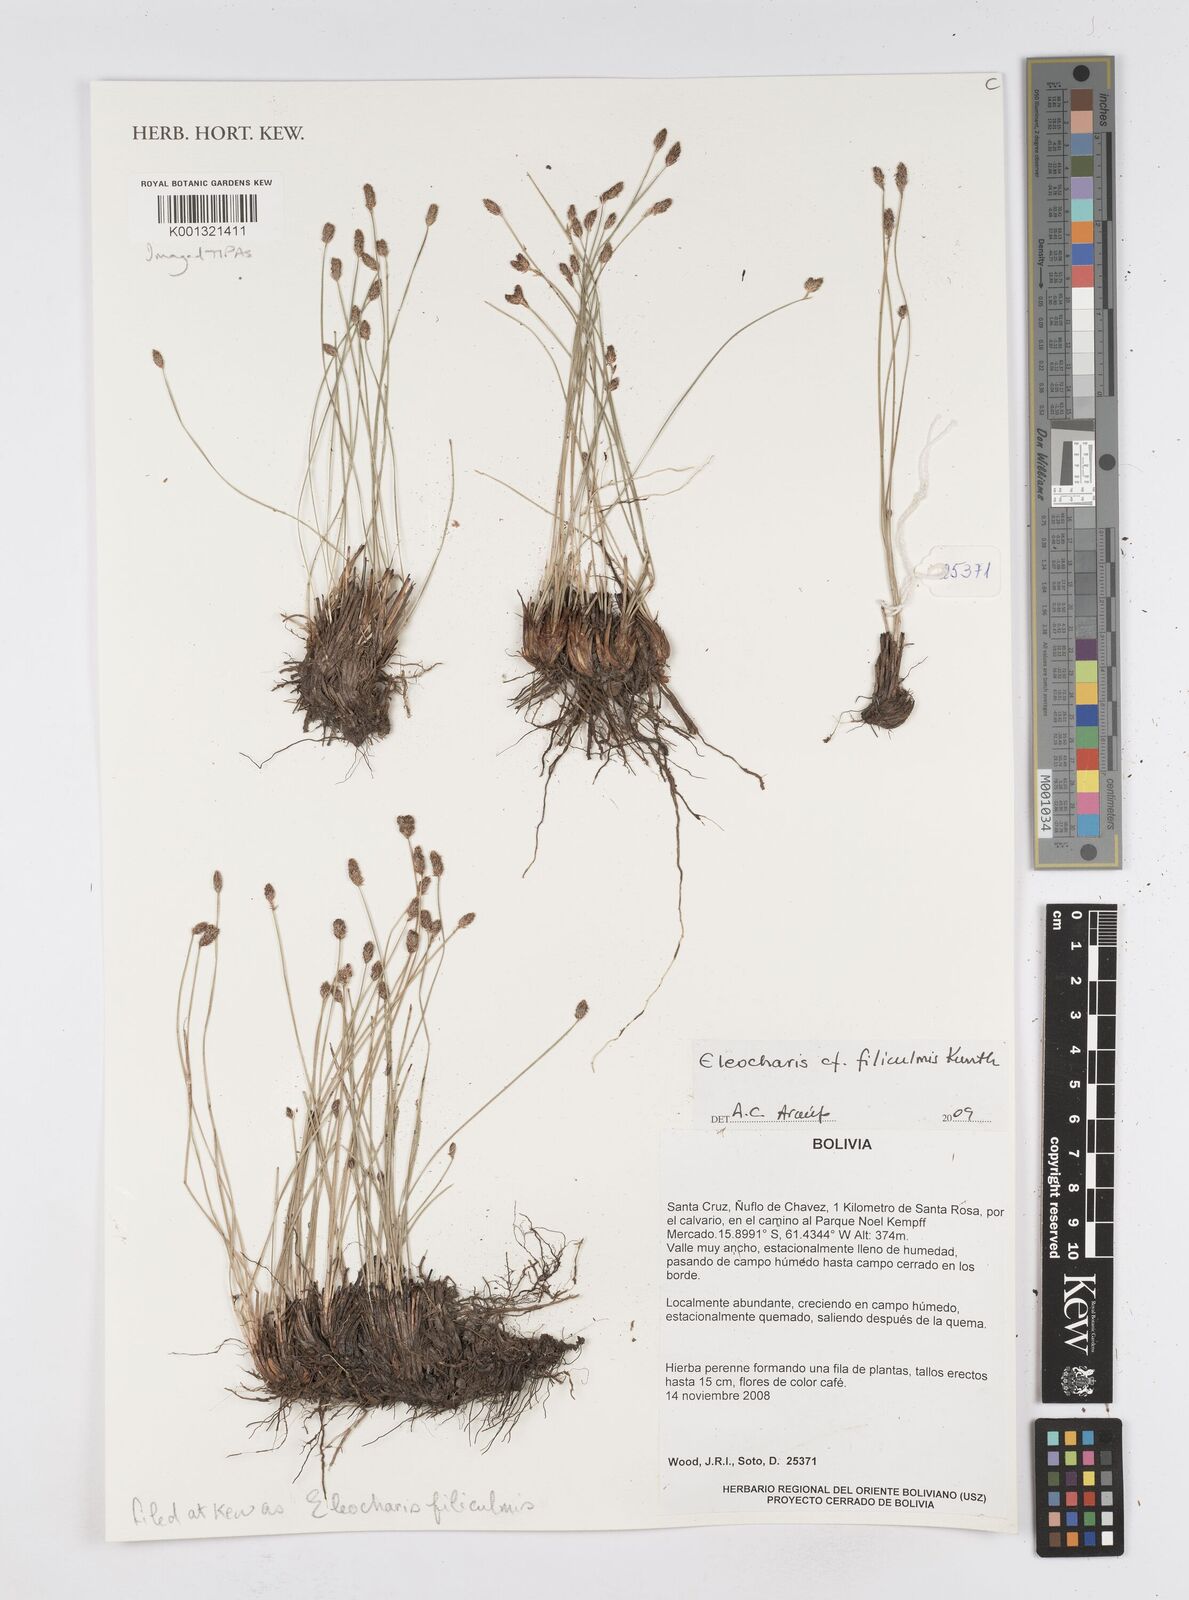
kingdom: Plantae
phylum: Tracheophyta
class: Liliopsida
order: Poales
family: Cyperaceae
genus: Eleocharis
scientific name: Eleocharis filiculmis
